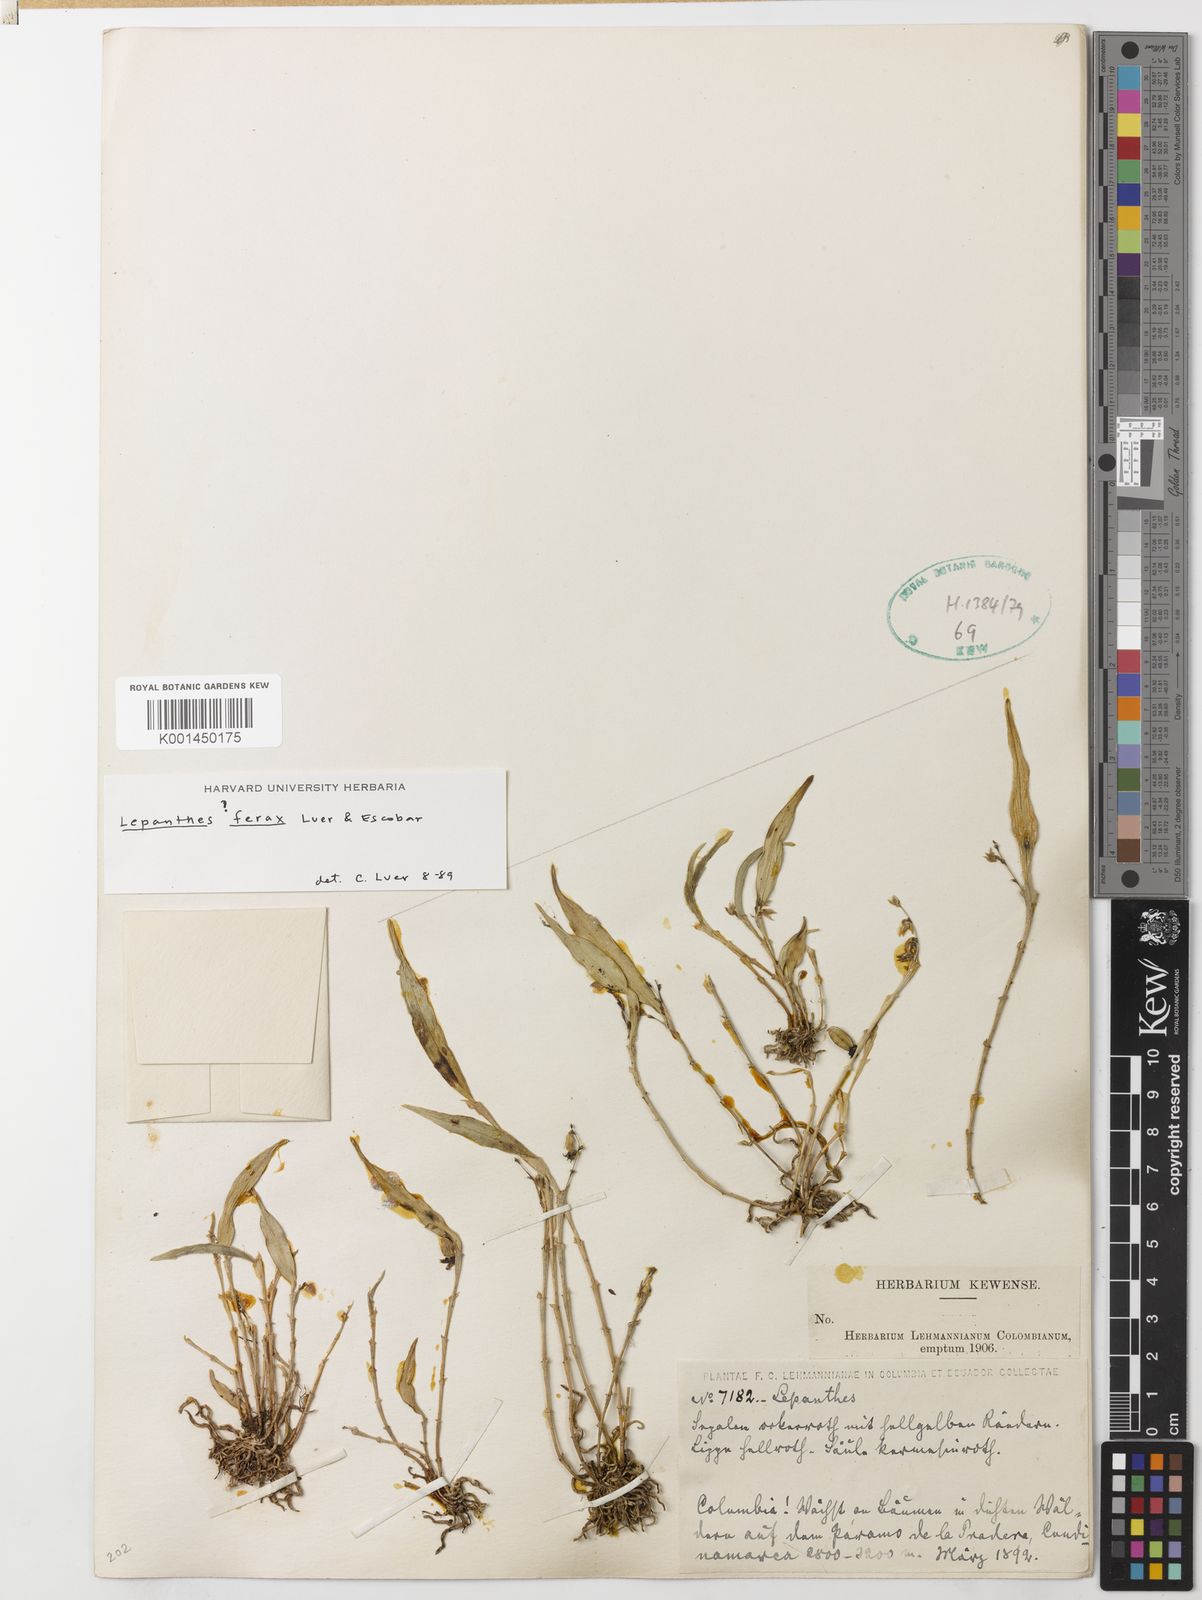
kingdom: Plantae
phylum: Tracheophyta
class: Liliopsida
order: Asparagales
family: Orchidaceae
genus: Lepanthes
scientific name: Lepanthes ferax
